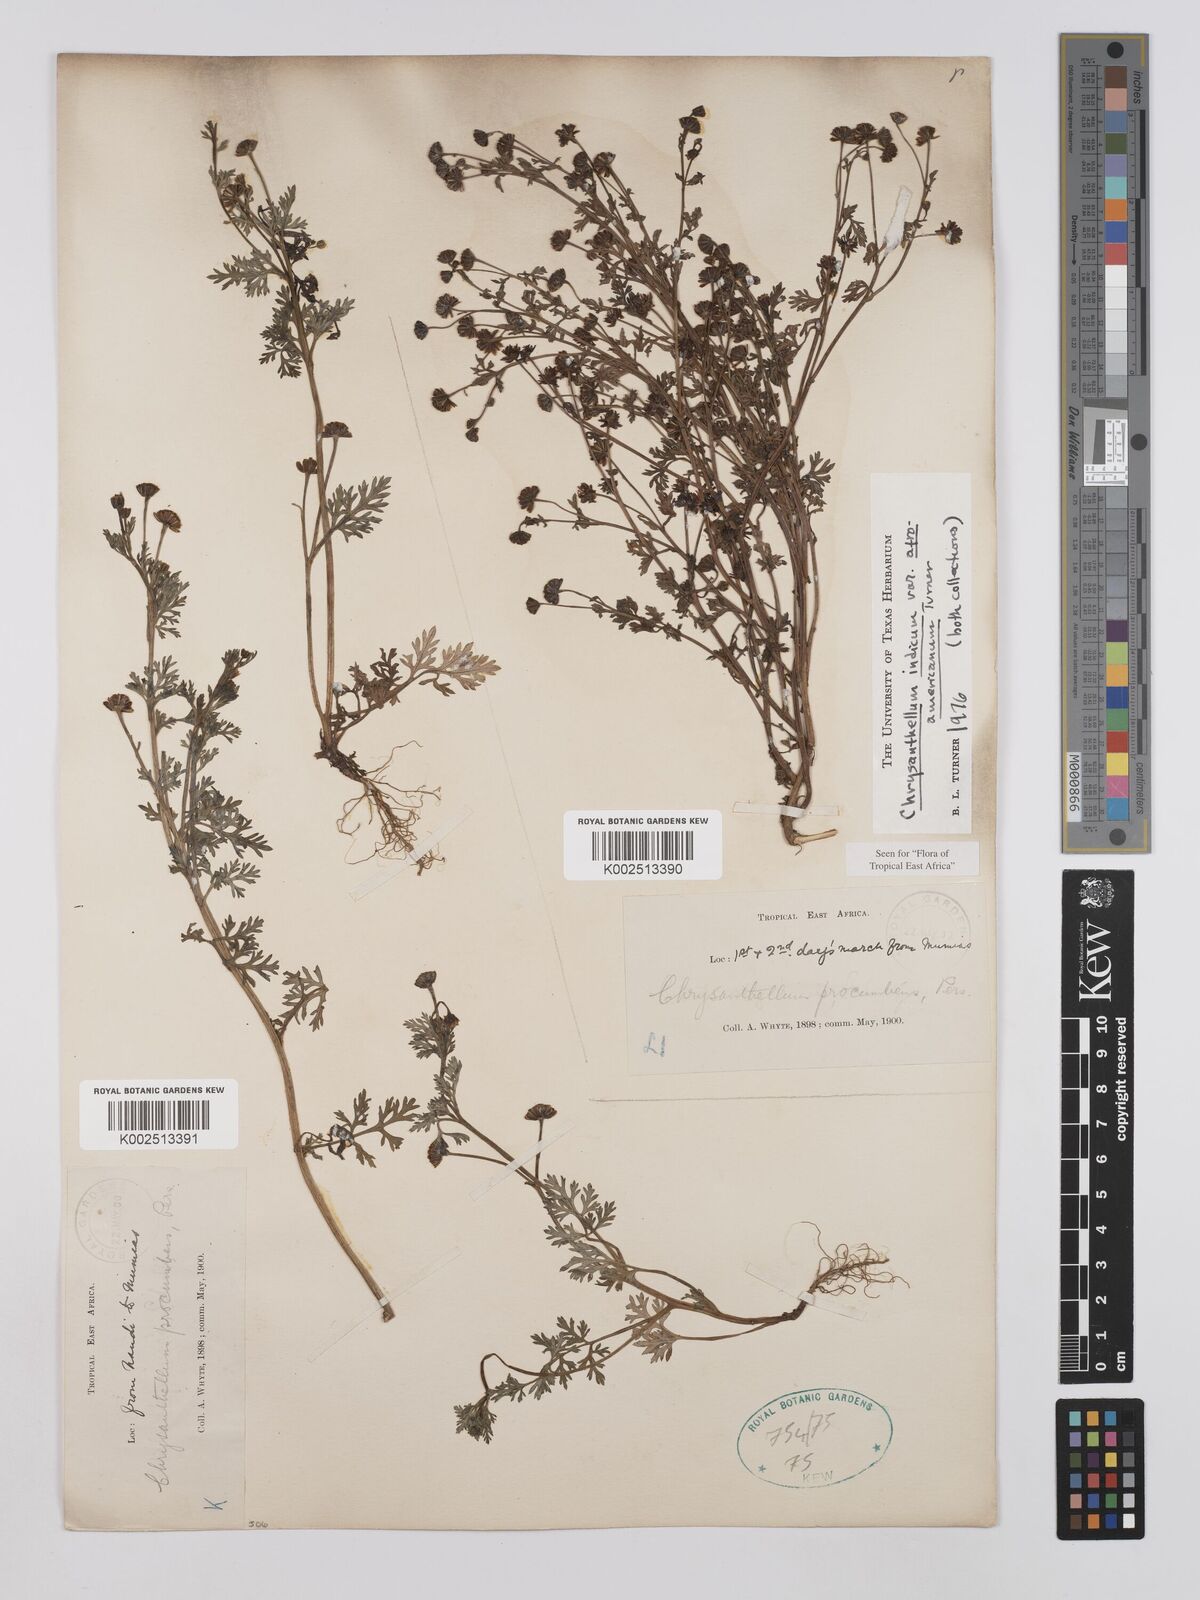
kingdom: Plantae
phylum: Tracheophyta
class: Magnoliopsida
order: Asterales
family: Asteraceae
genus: Chrysanthellum
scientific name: Chrysanthellum indicum
